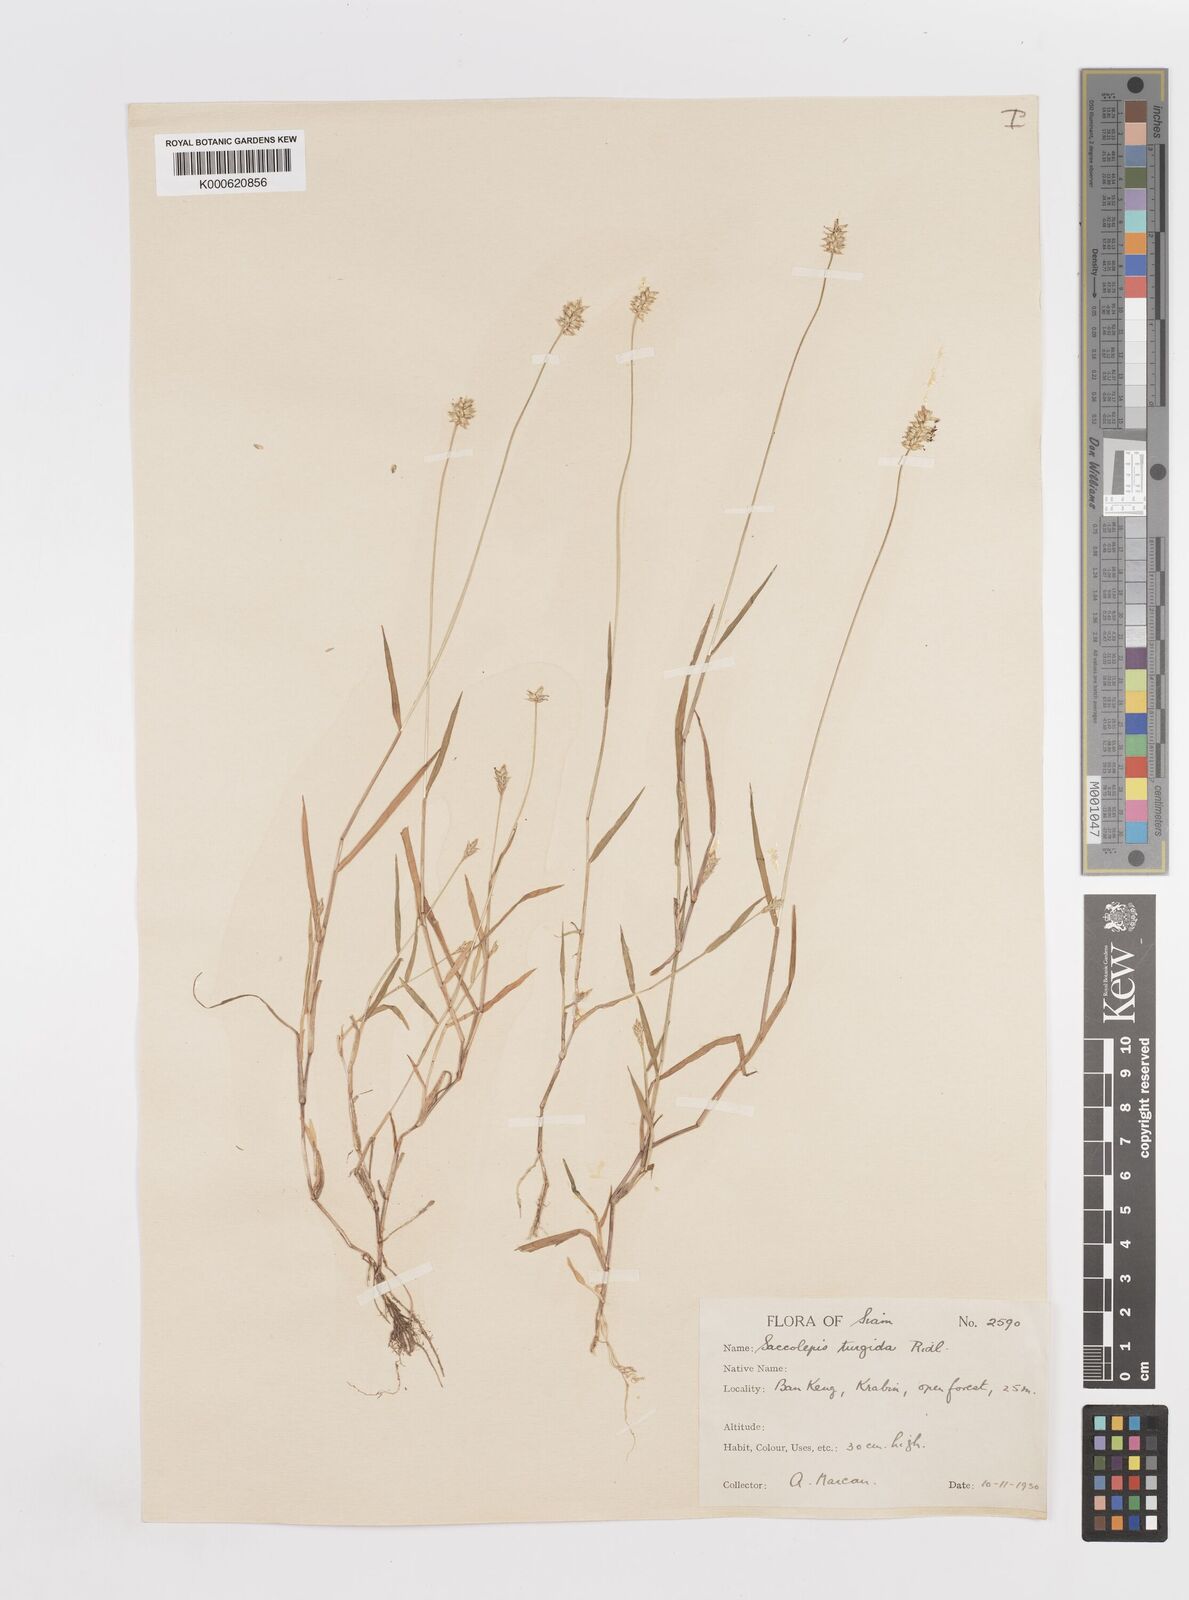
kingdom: Plantae
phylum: Tracheophyta
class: Liliopsida
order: Poales
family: Poaceae
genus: Sacciolepis
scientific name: Sacciolepis indica
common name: Glenwoodgrass
